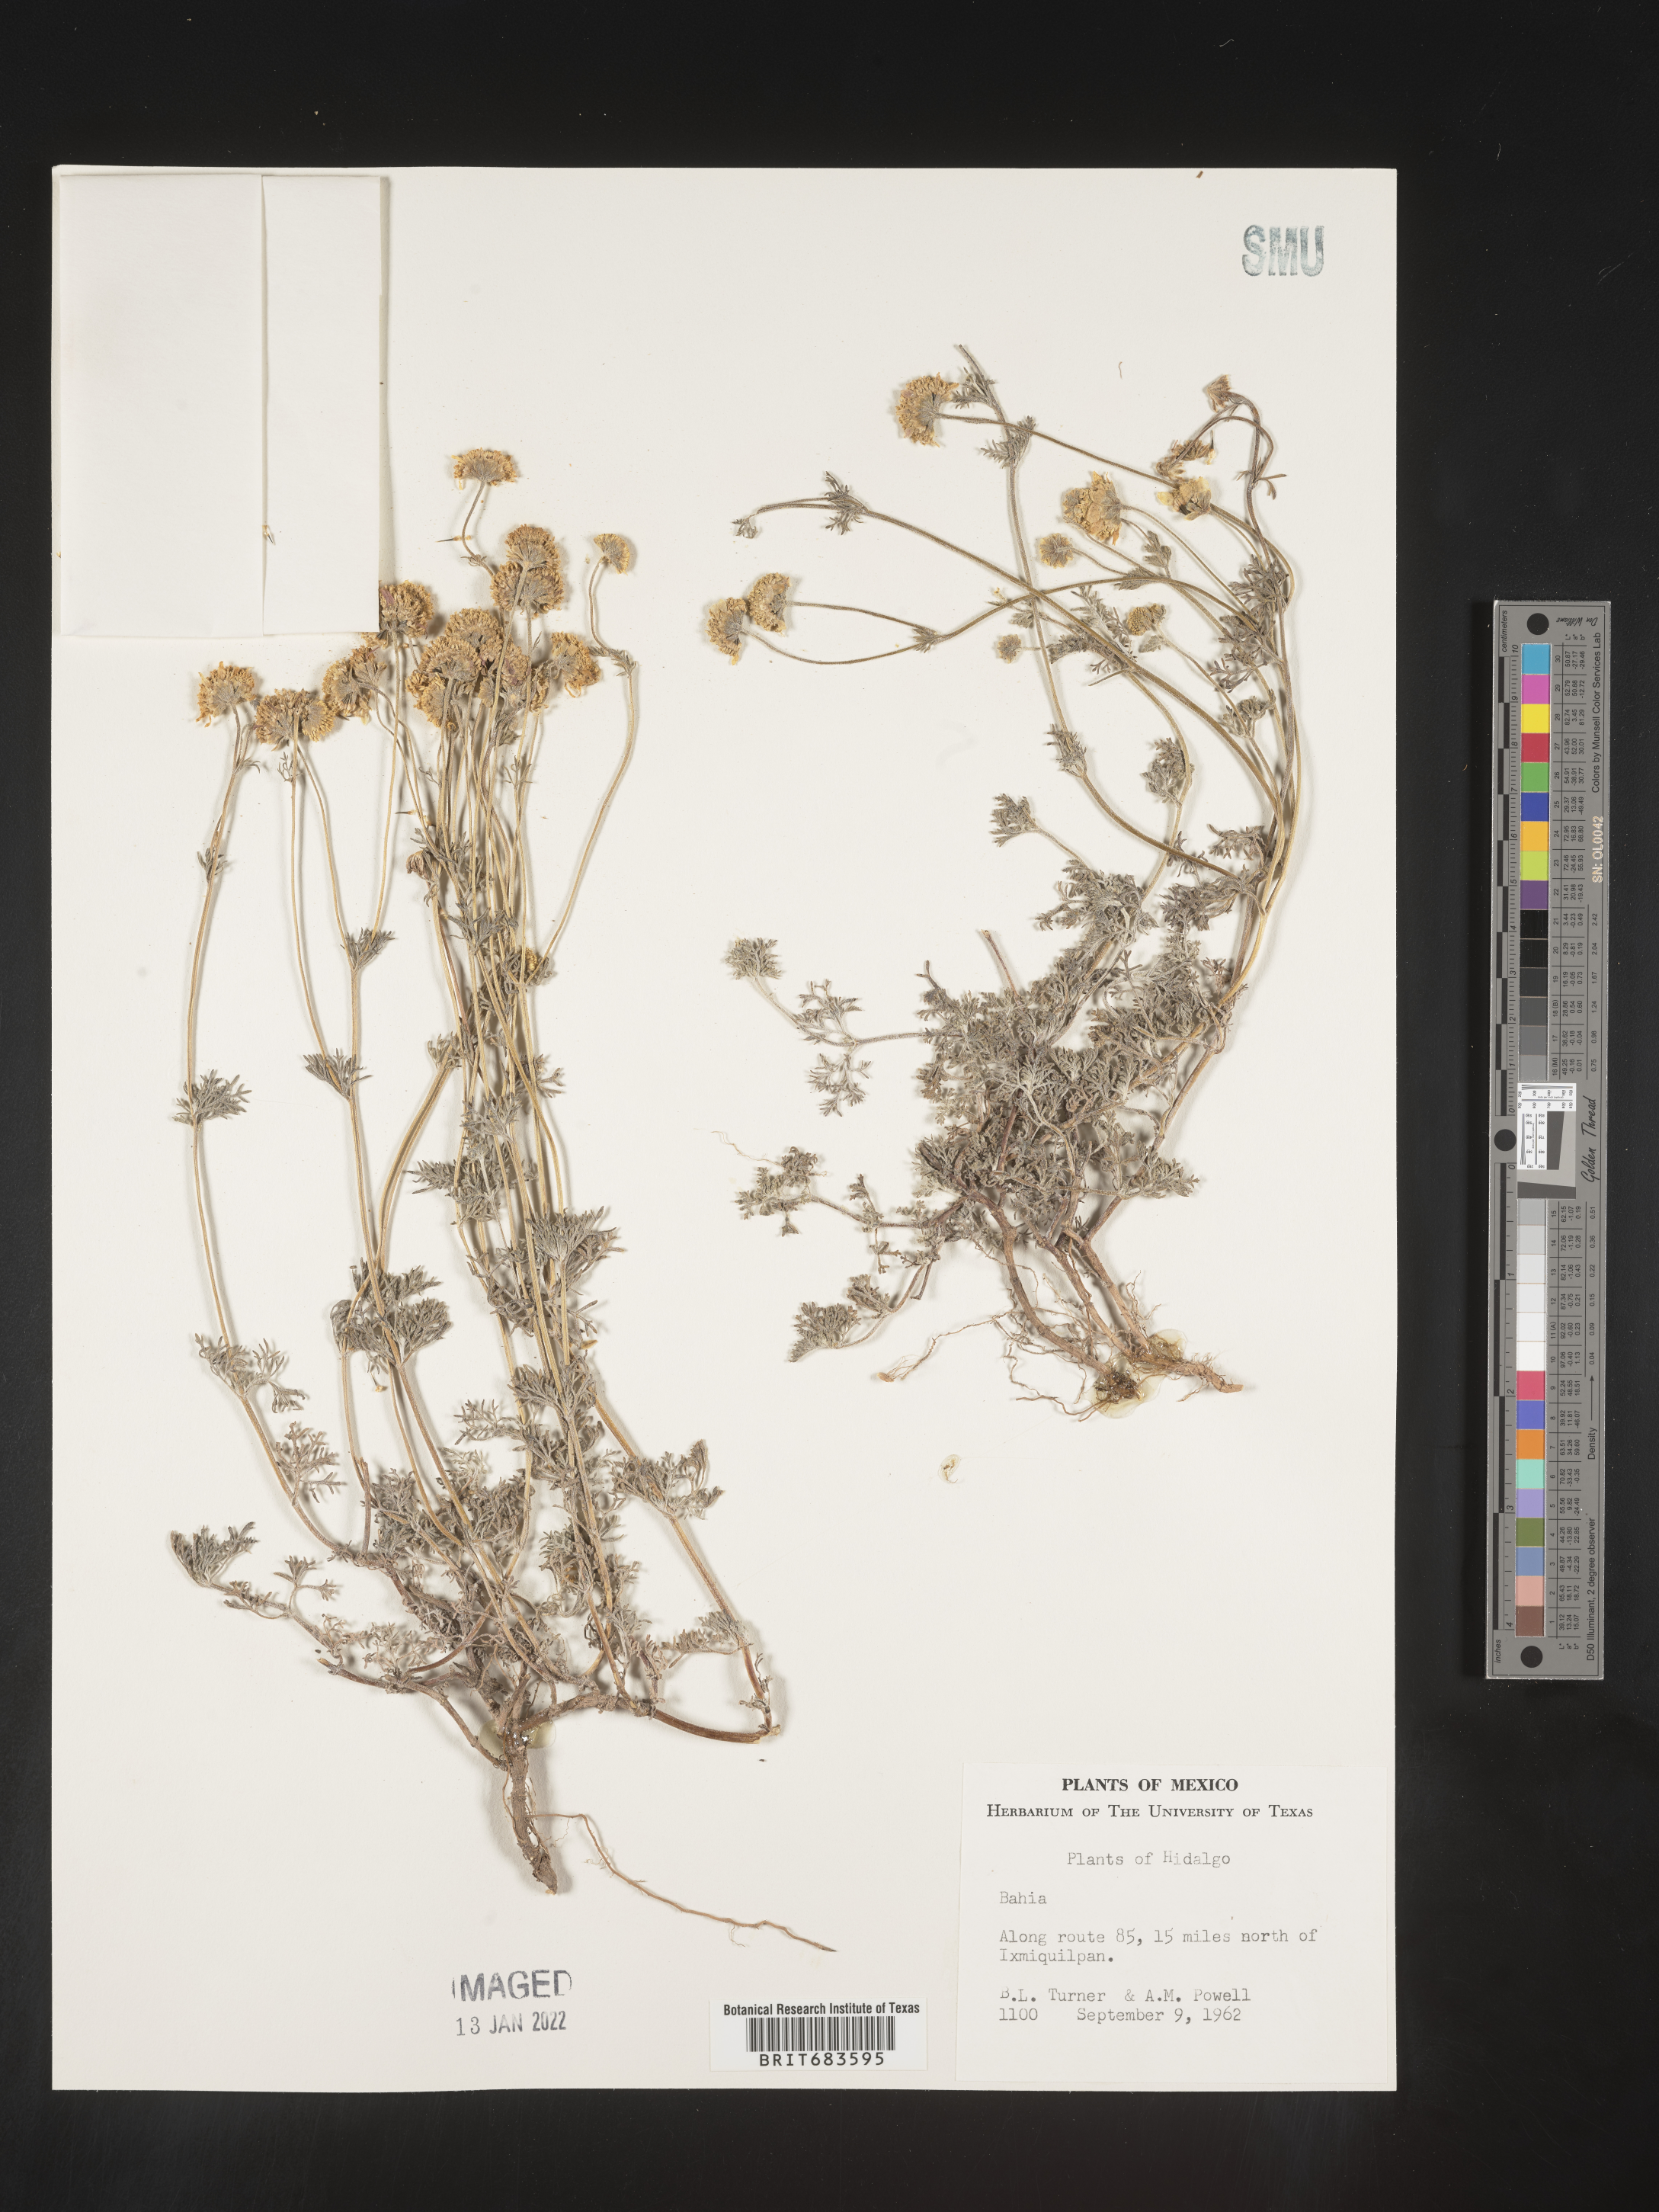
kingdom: Plantae
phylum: Tracheophyta
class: Magnoliopsida
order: Asterales
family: Asteraceae
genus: Bahia
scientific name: Bahia
